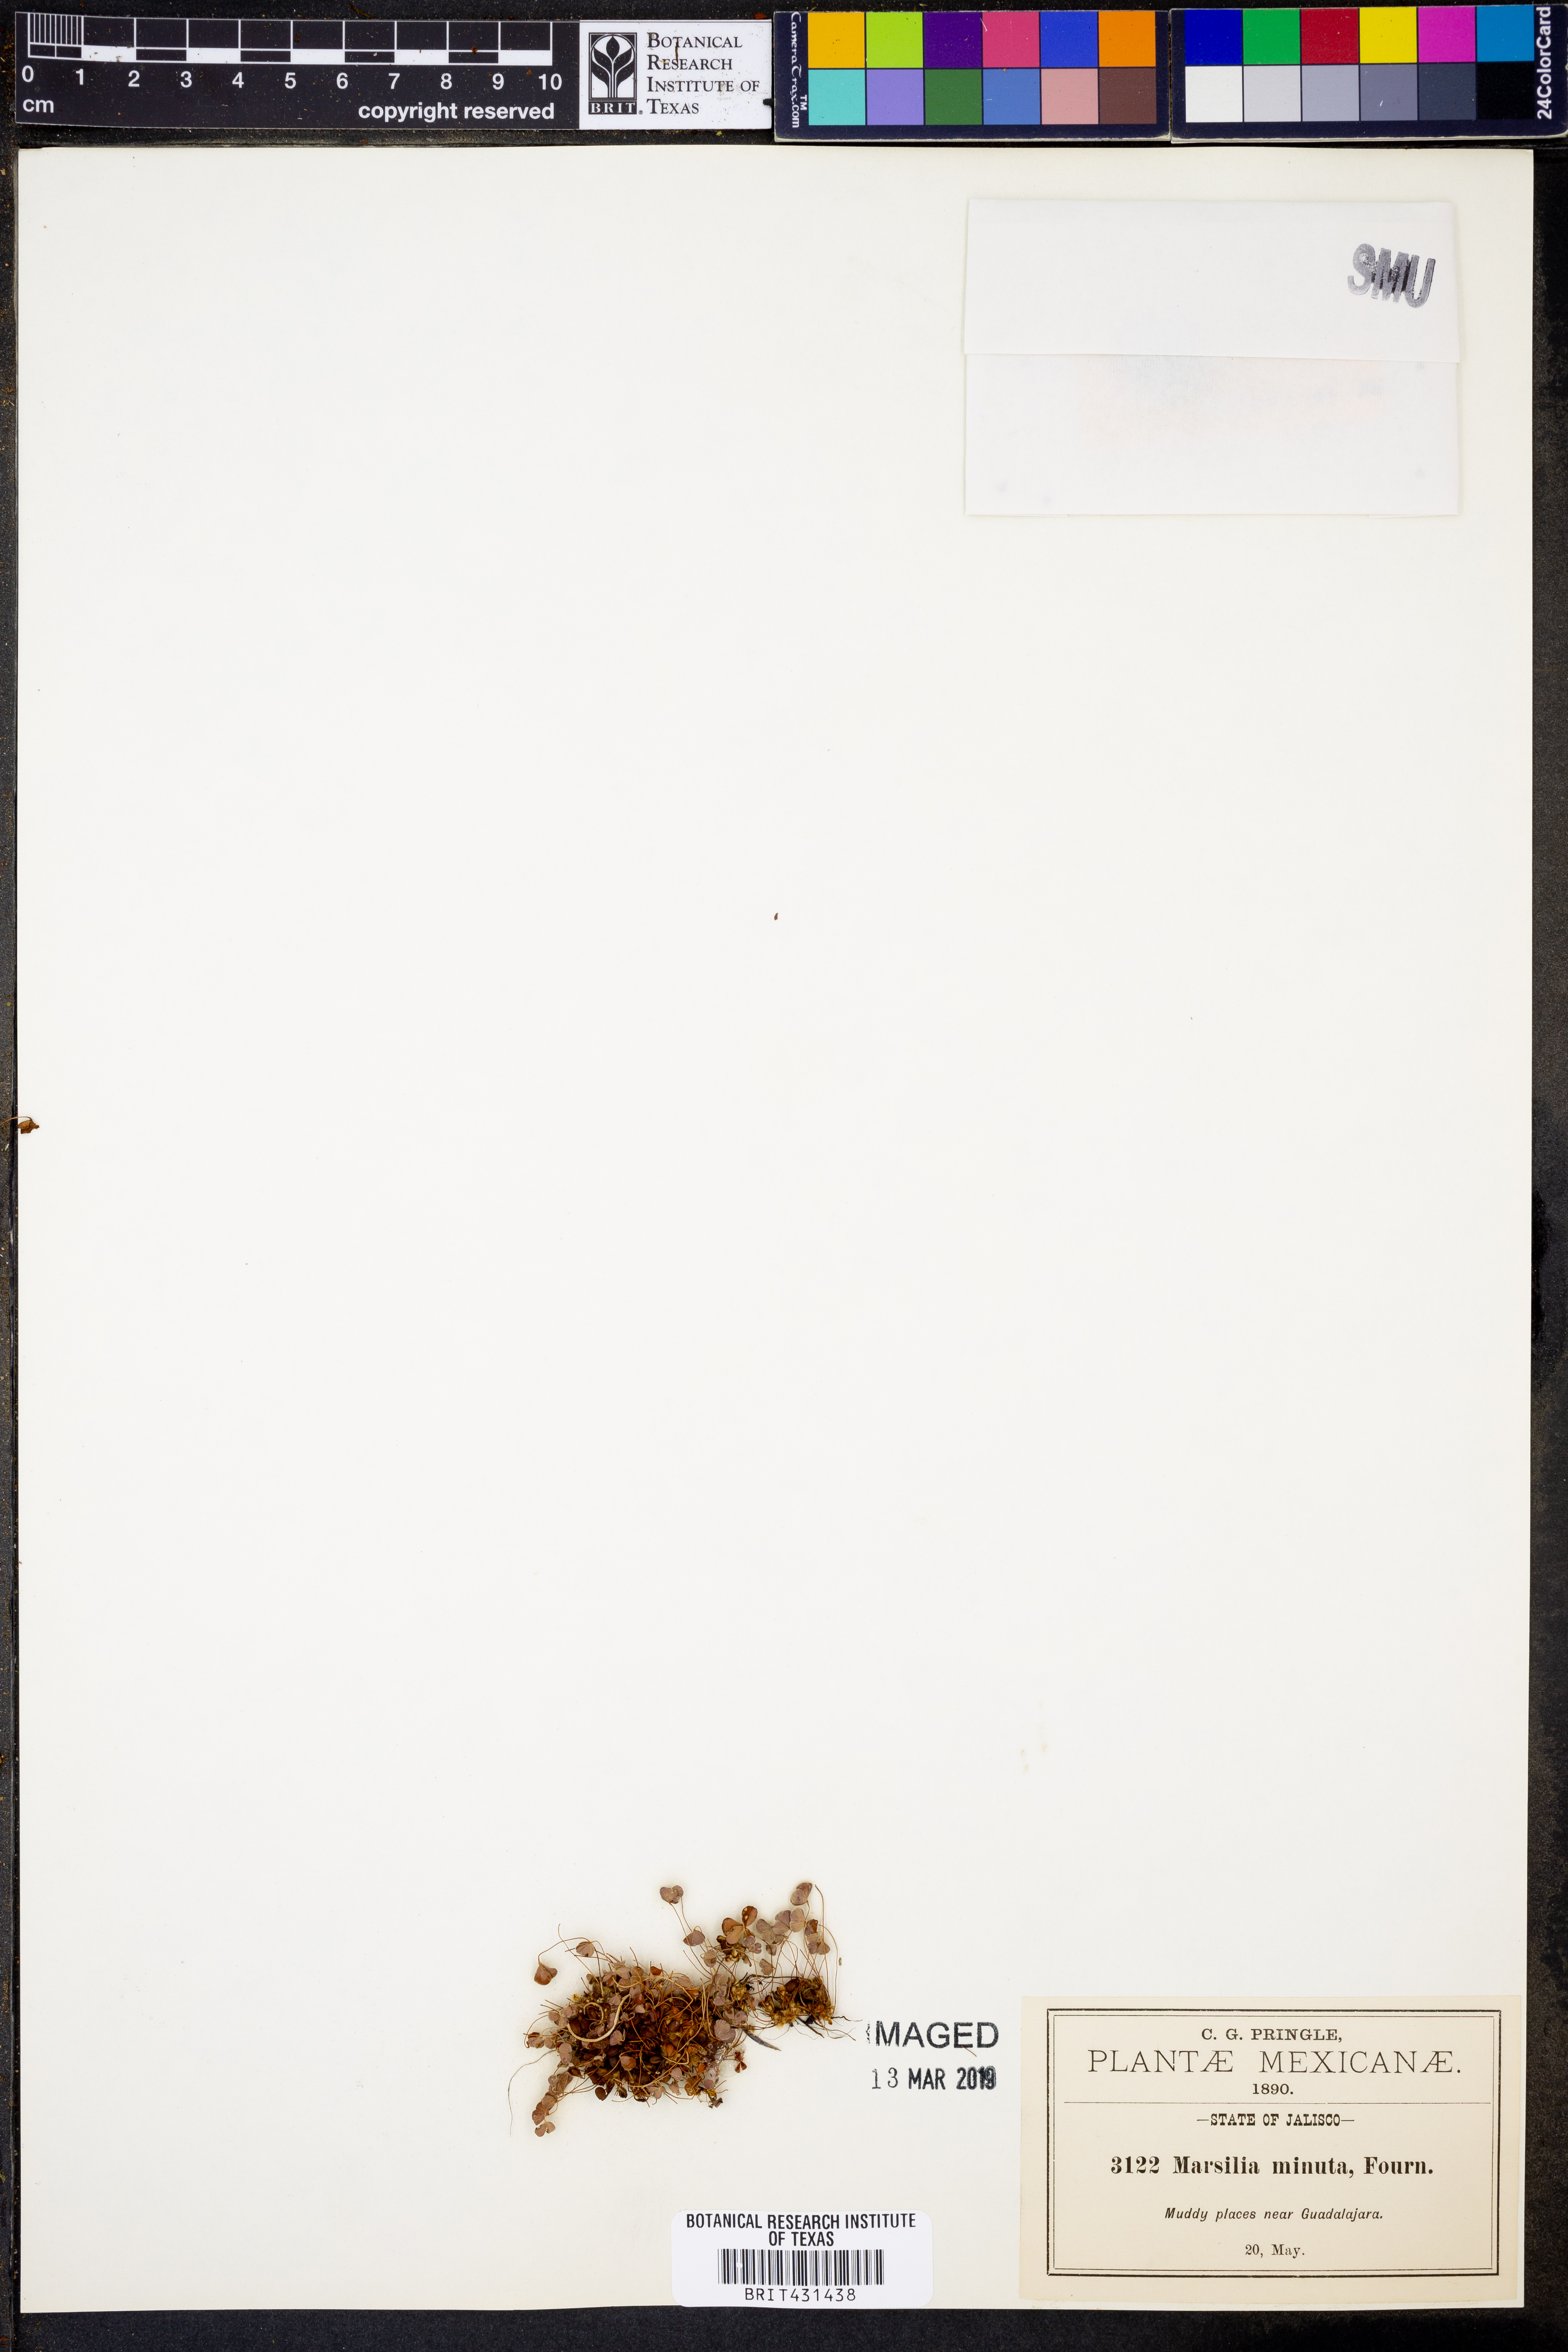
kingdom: Plantae
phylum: Tracheophyta
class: Polypodiopsida
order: Salviniales
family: Marsileaceae
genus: Marsilea
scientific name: Marsilea vestita
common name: Hooked-pepperwort
